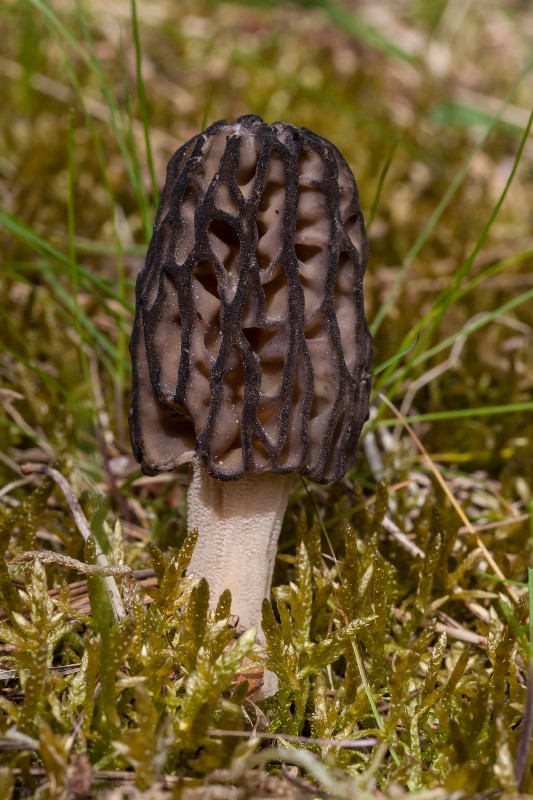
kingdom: Fungi
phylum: Ascomycota
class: Pezizomycetes
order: Pezizales
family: Morchellaceae
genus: Morchella
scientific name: Morchella esculenta
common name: Morel
